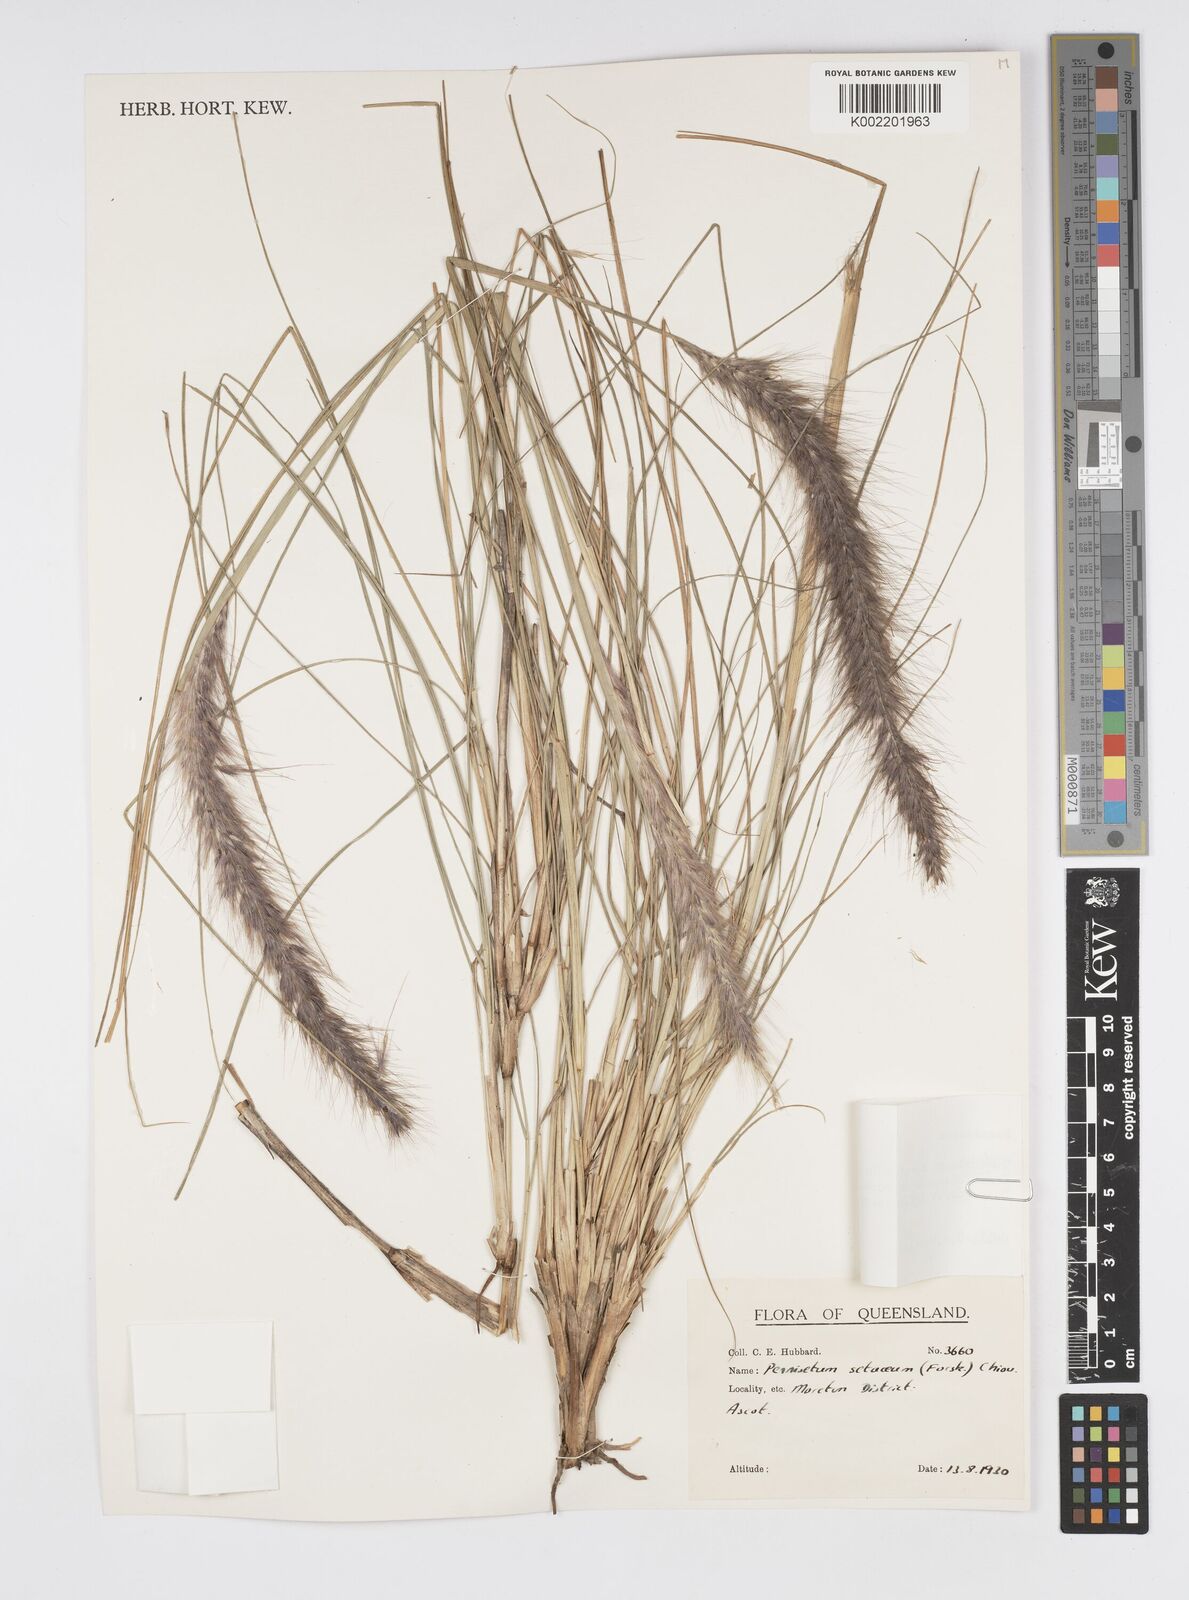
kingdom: Plantae
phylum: Tracheophyta
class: Liliopsida
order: Poales
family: Poaceae
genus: Cenchrus
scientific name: Cenchrus setaceus
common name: Crimson fountaingrass
